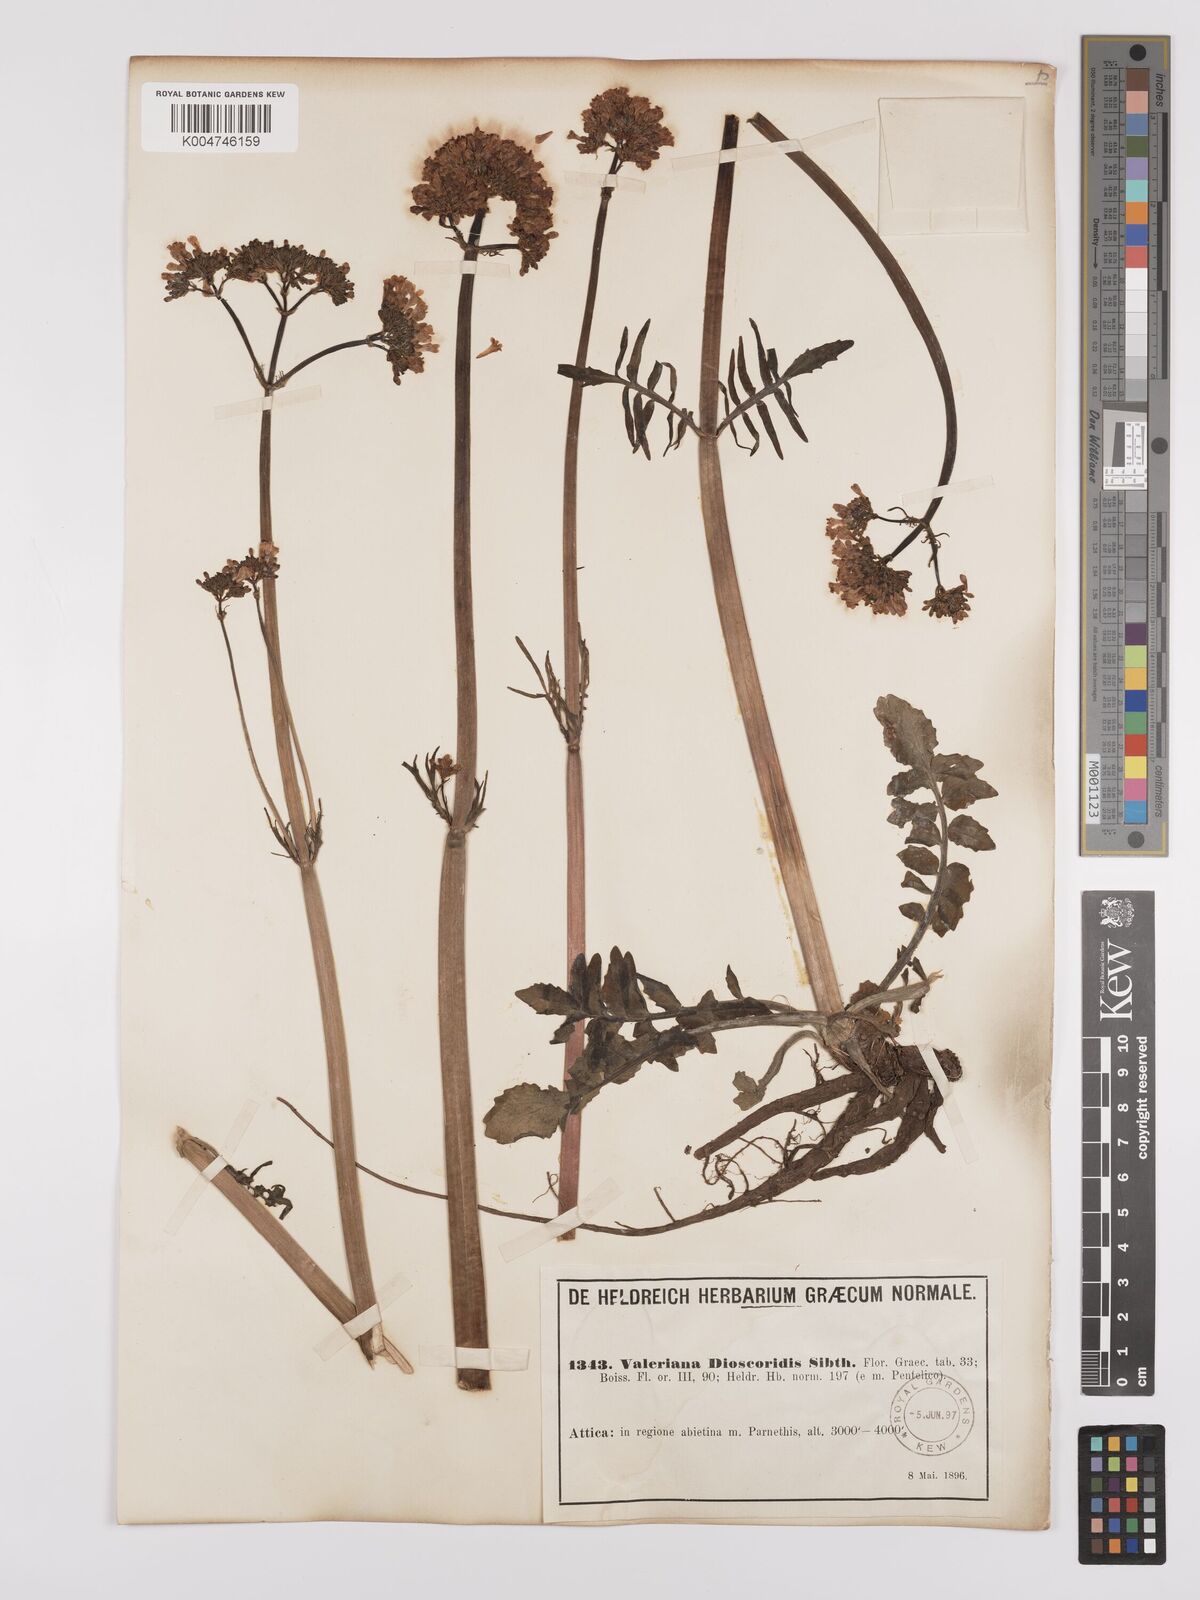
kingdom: Plantae
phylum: Tracheophyta
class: Magnoliopsida
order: Dipsacales
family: Caprifoliaceae
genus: Valeriana
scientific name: Valeriana dioscoridis
